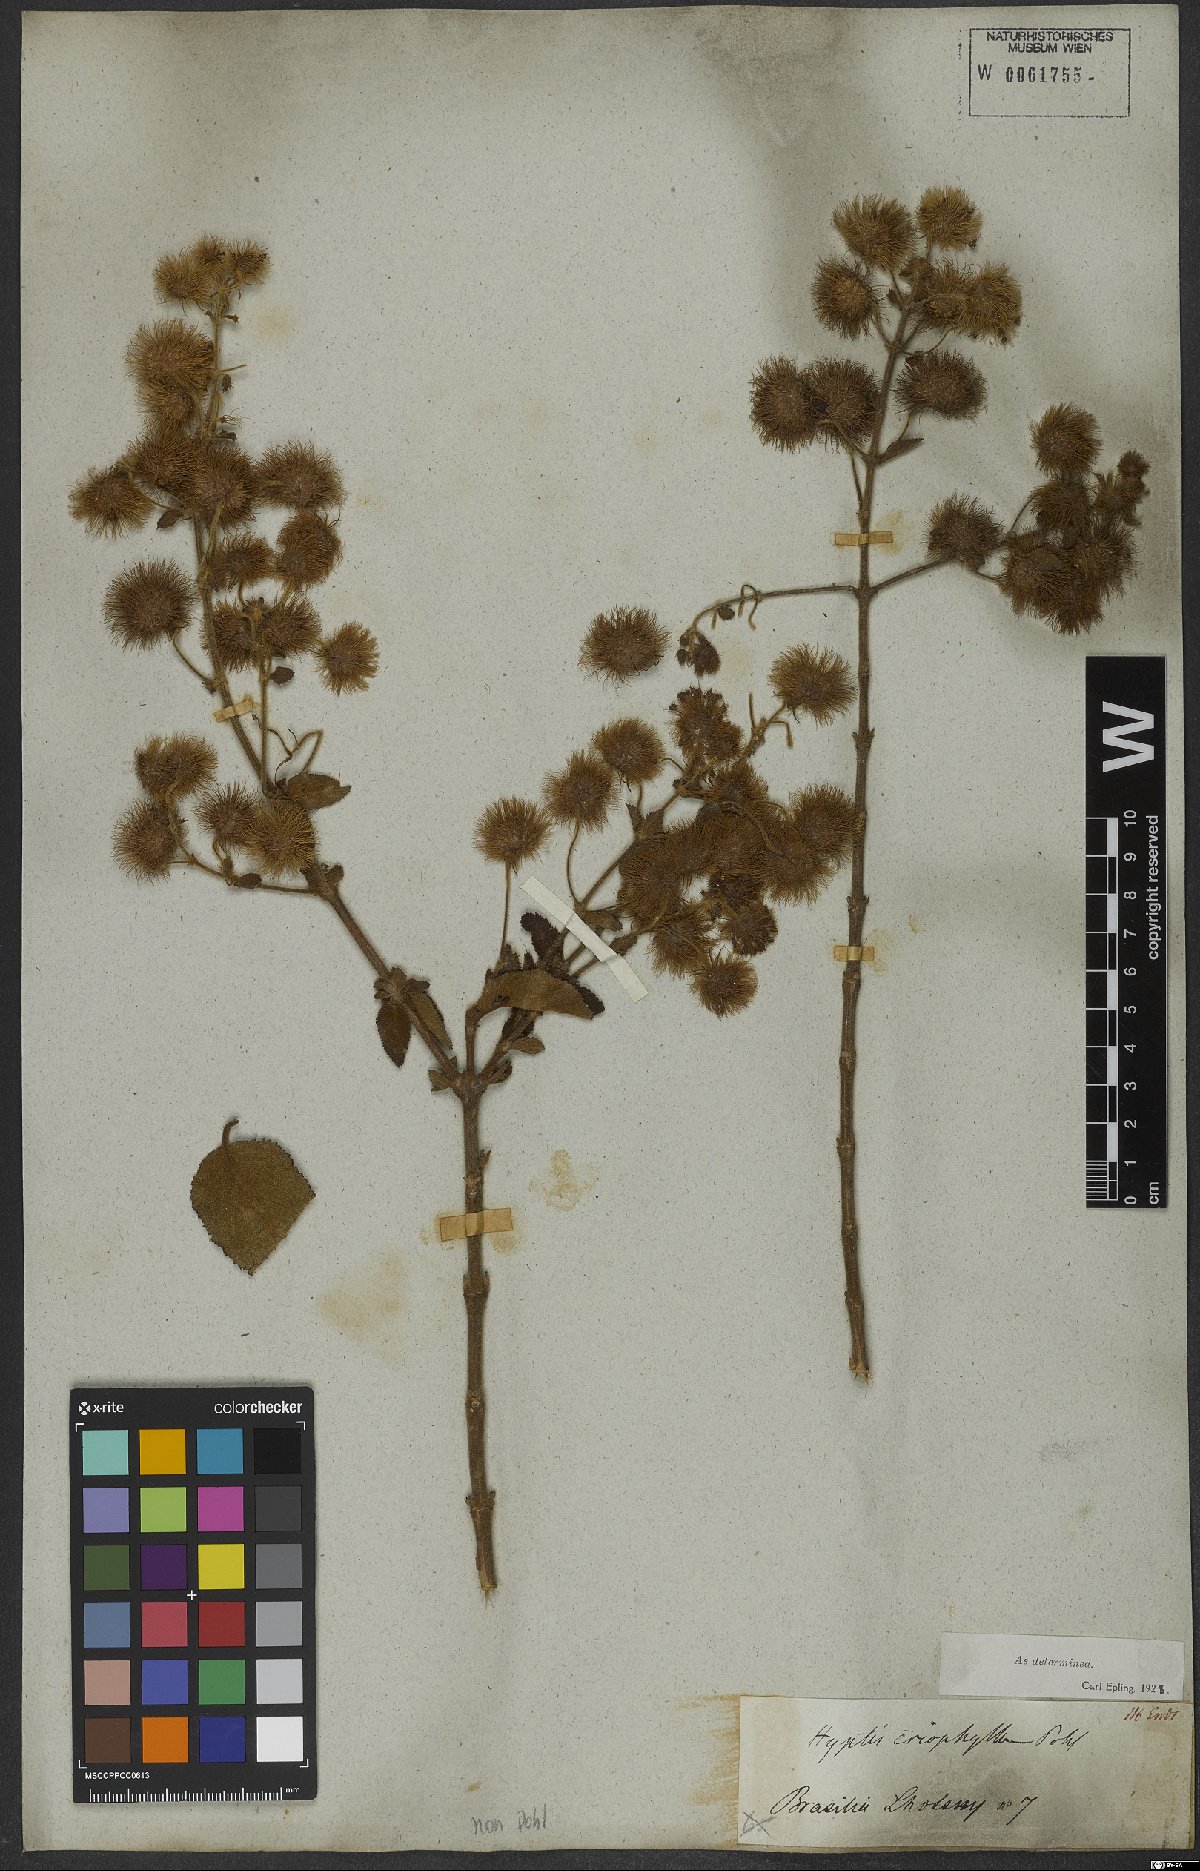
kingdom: Plantae
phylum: Tracheophyta
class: Magnoliopsida
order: Lamiales
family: Lamiaceae
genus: Medusantha
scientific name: Medusantha eriophylla
